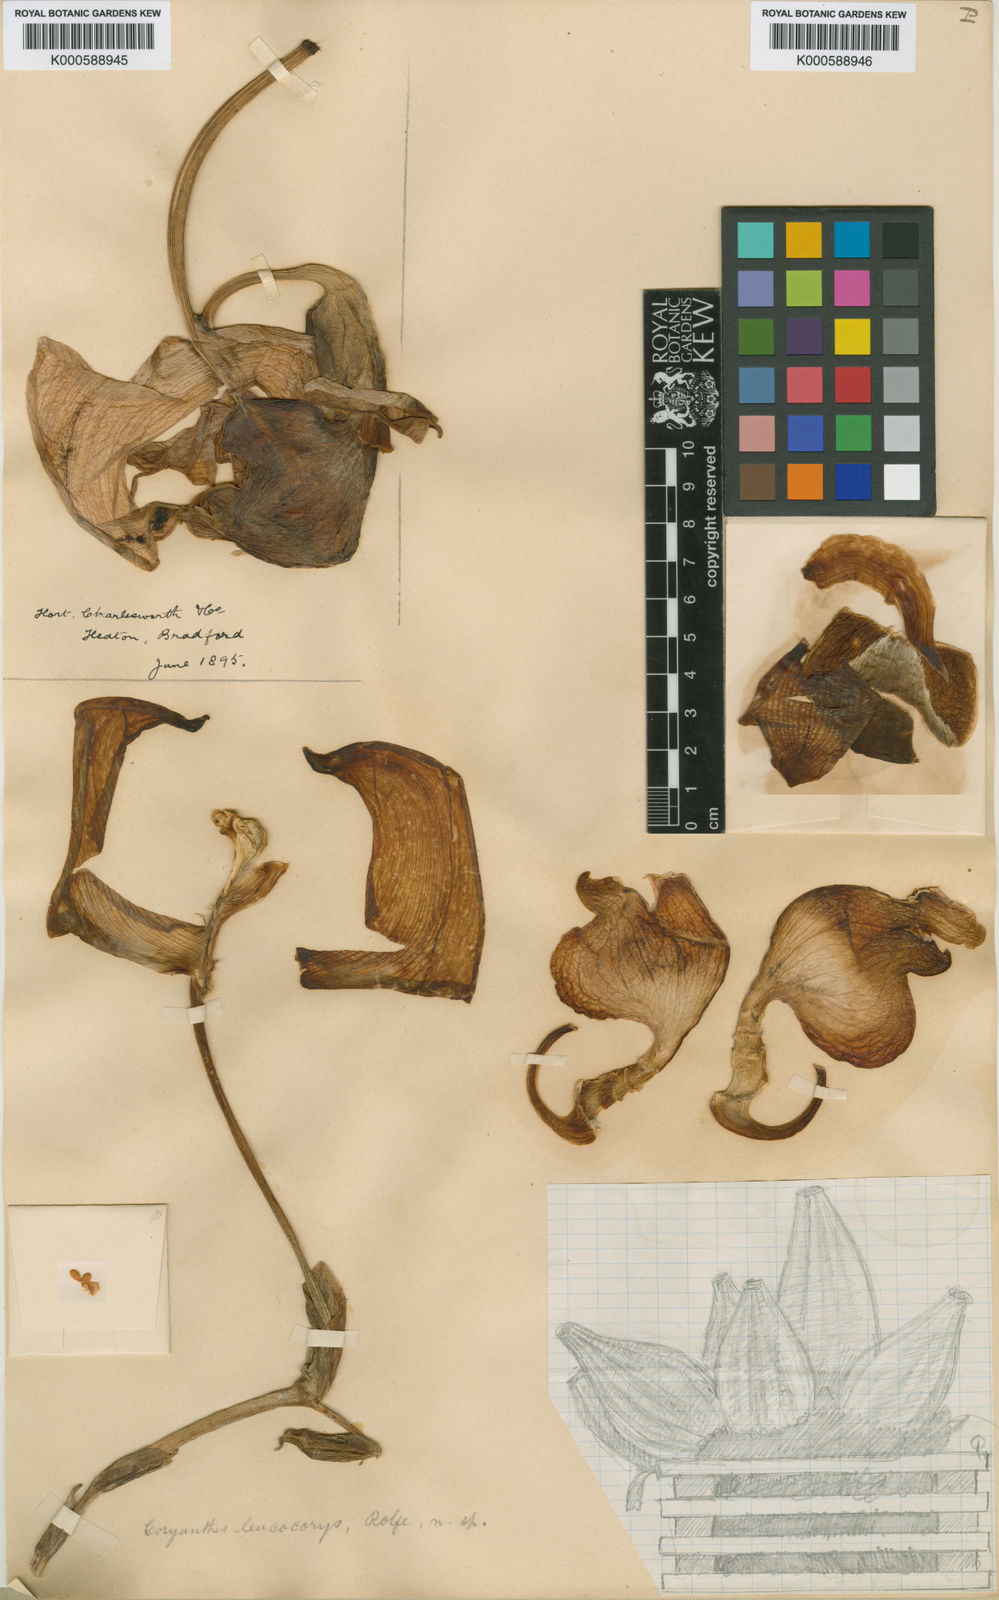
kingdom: Plantae
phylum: Tracheophyta
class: Liliopsida
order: Asparagales
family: Orchidaceae
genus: Coryanthes
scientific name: Coryanthes leucocorys
